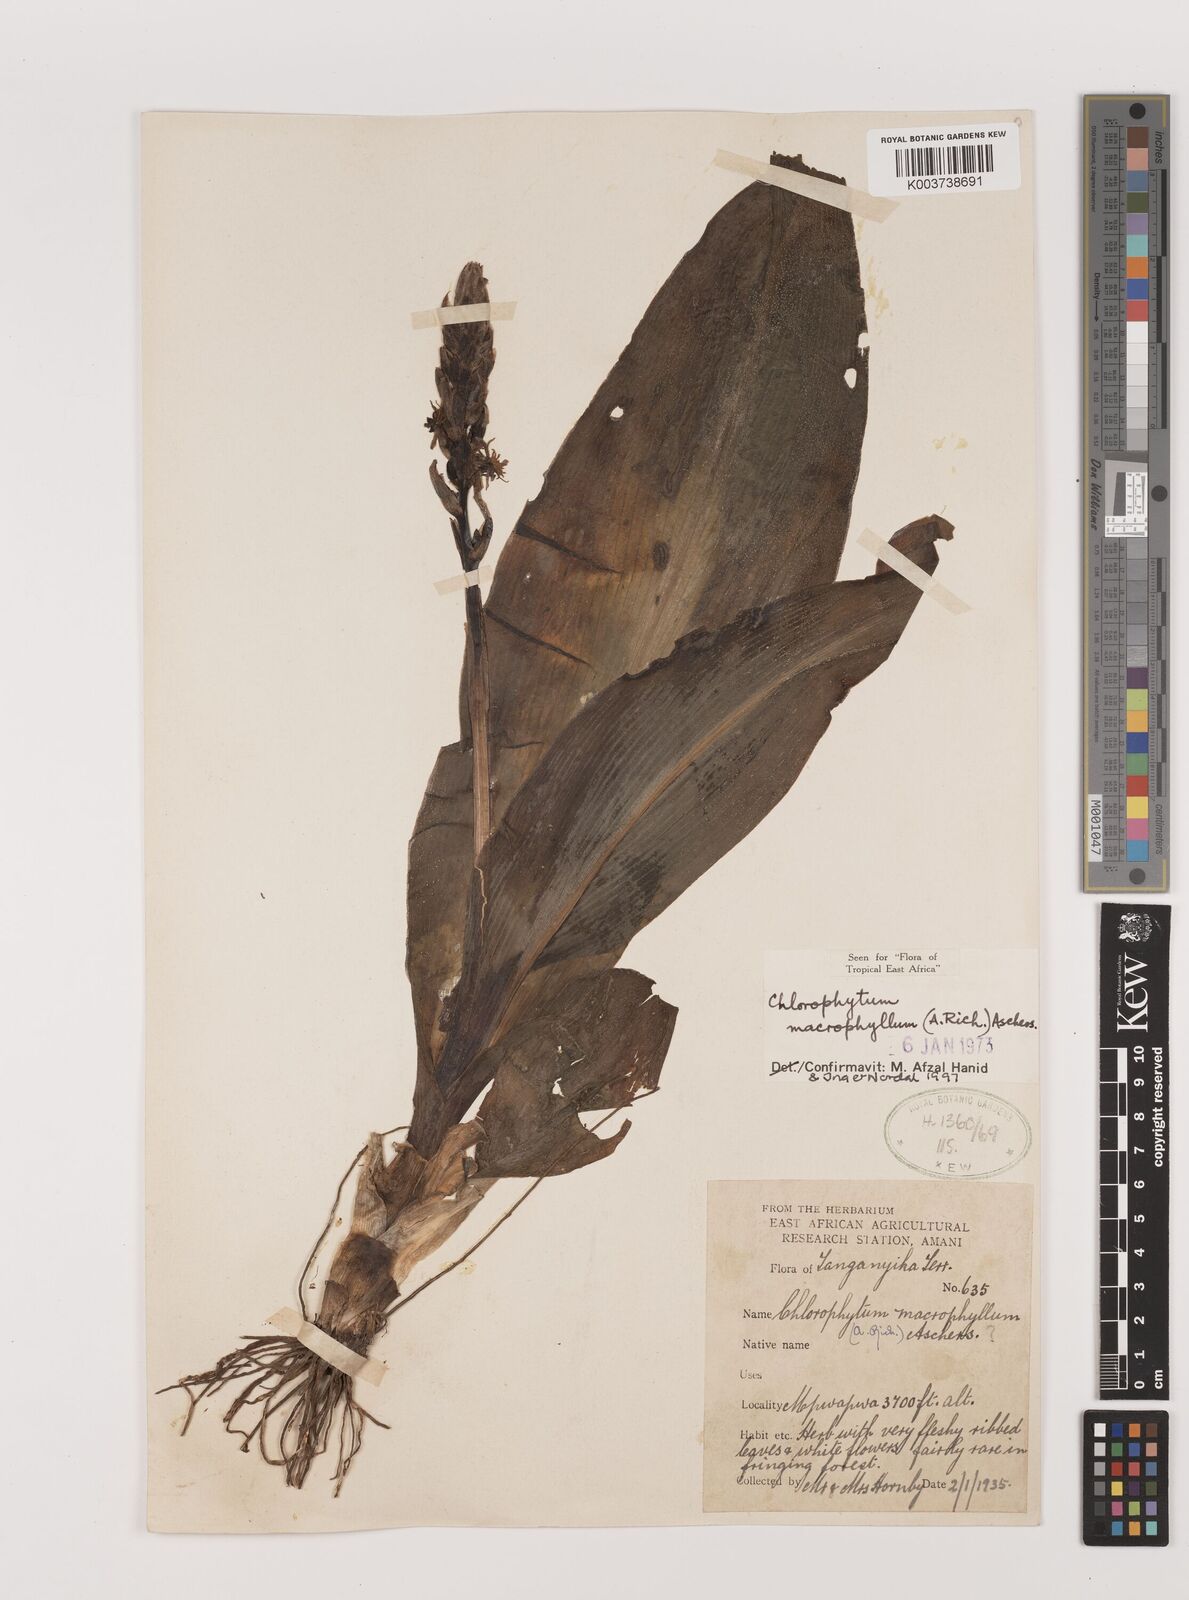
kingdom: Plantae
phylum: Tracheophyta
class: Liliopsida
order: Asparagales
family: Asparagaceae
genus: Chlorophytum
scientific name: Chlorophytum macrophyllum
